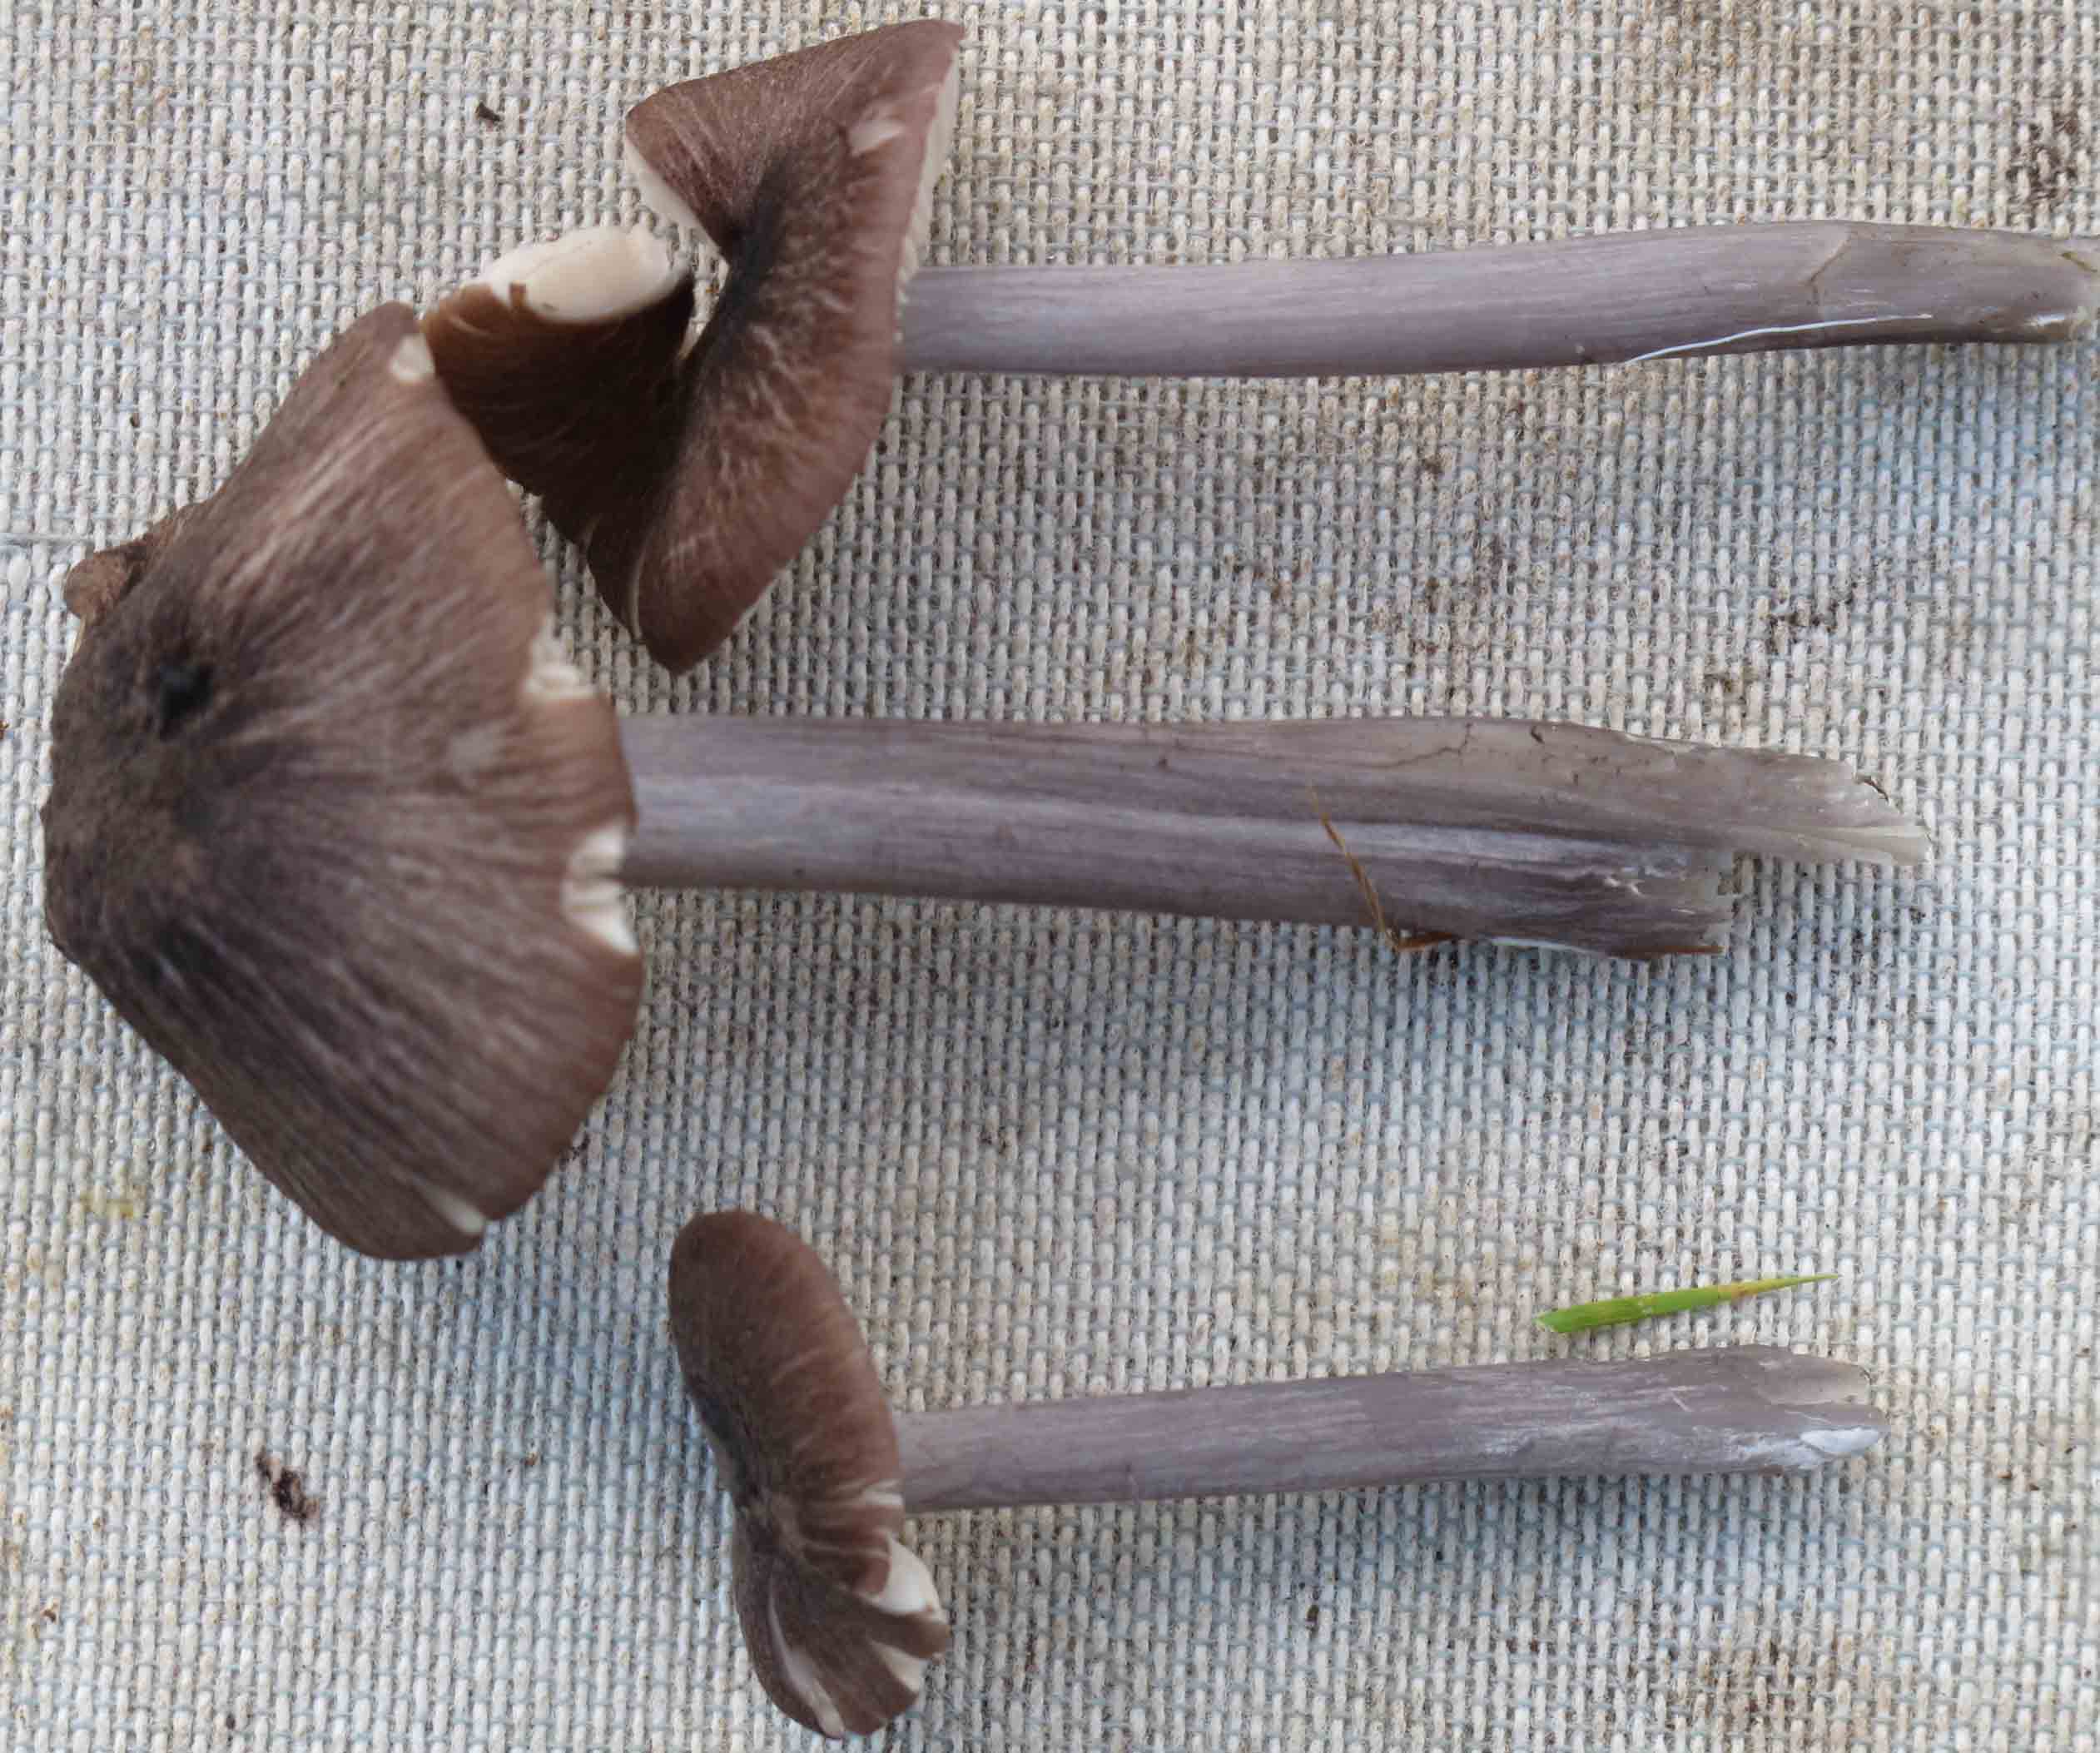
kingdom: Fungi
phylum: Basidiomycota
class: Agaricomycetes
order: Agaricales
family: Entolomataceae
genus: Entoloma
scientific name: Entoloma griseocyaneum
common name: gråblå rødblad
